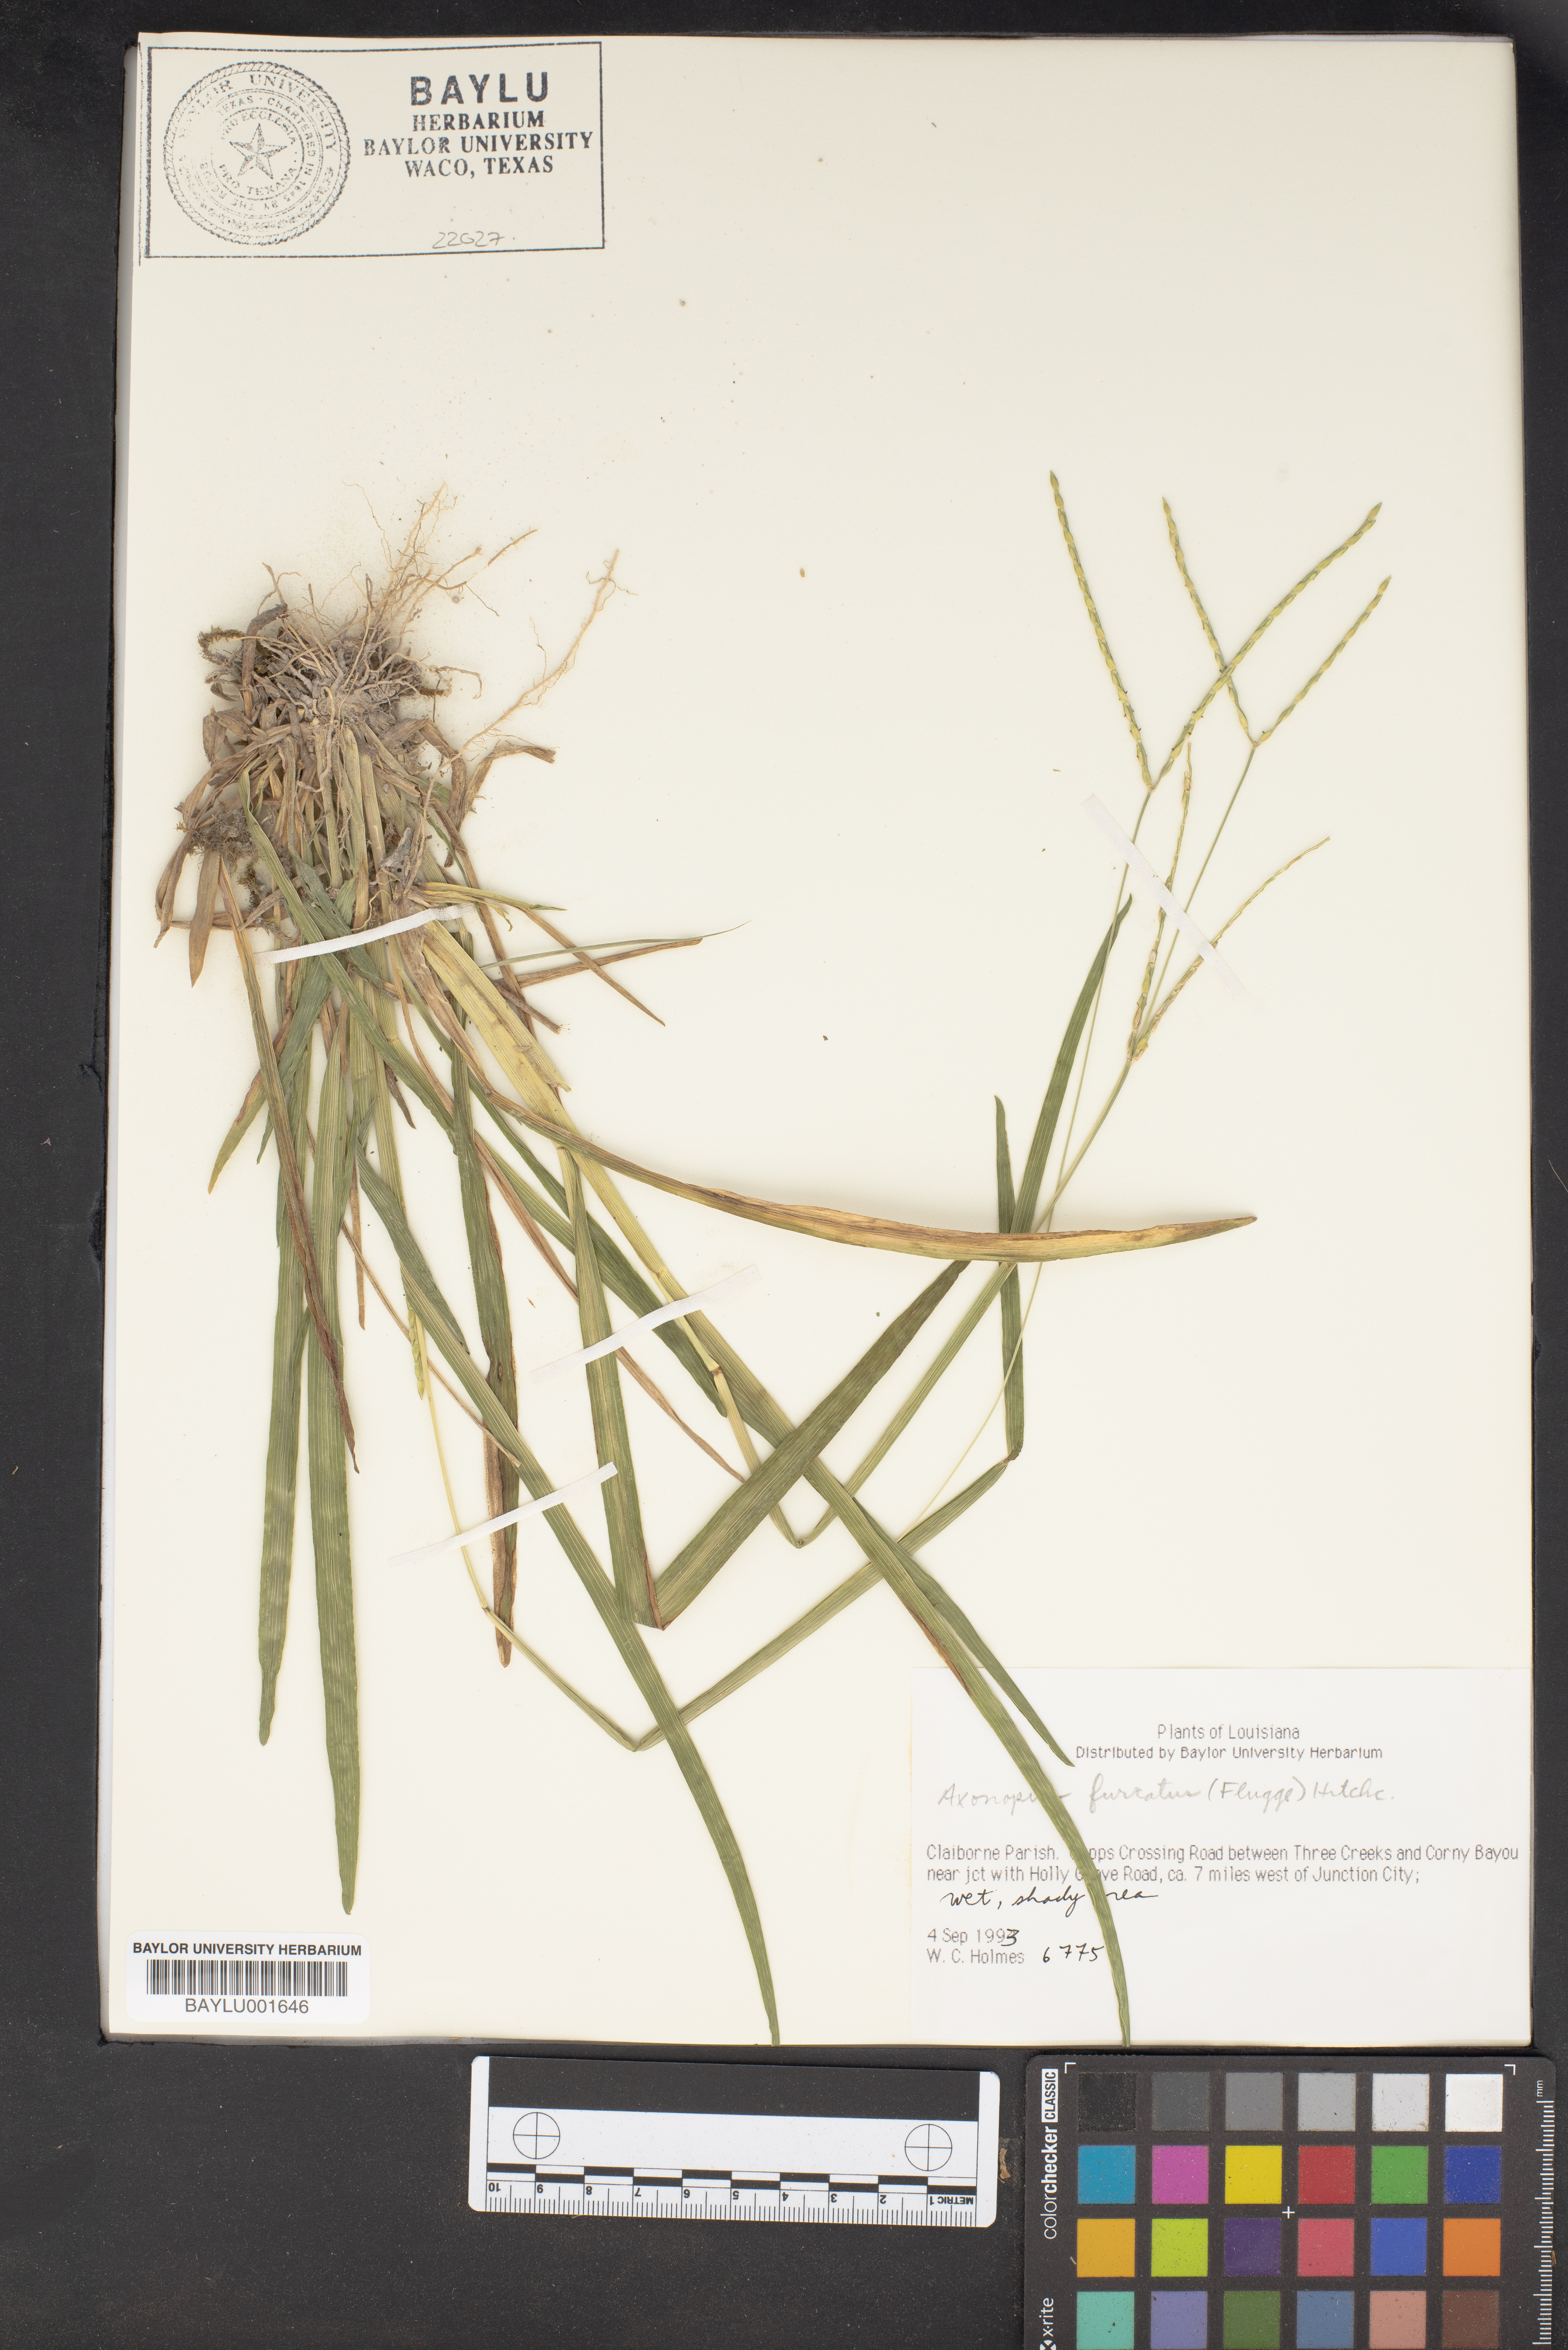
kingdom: Plantae
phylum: Tracheophyta
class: Liliopsida
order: Poales
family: Poaceae
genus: Axonopus
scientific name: Axonopus furcatus
